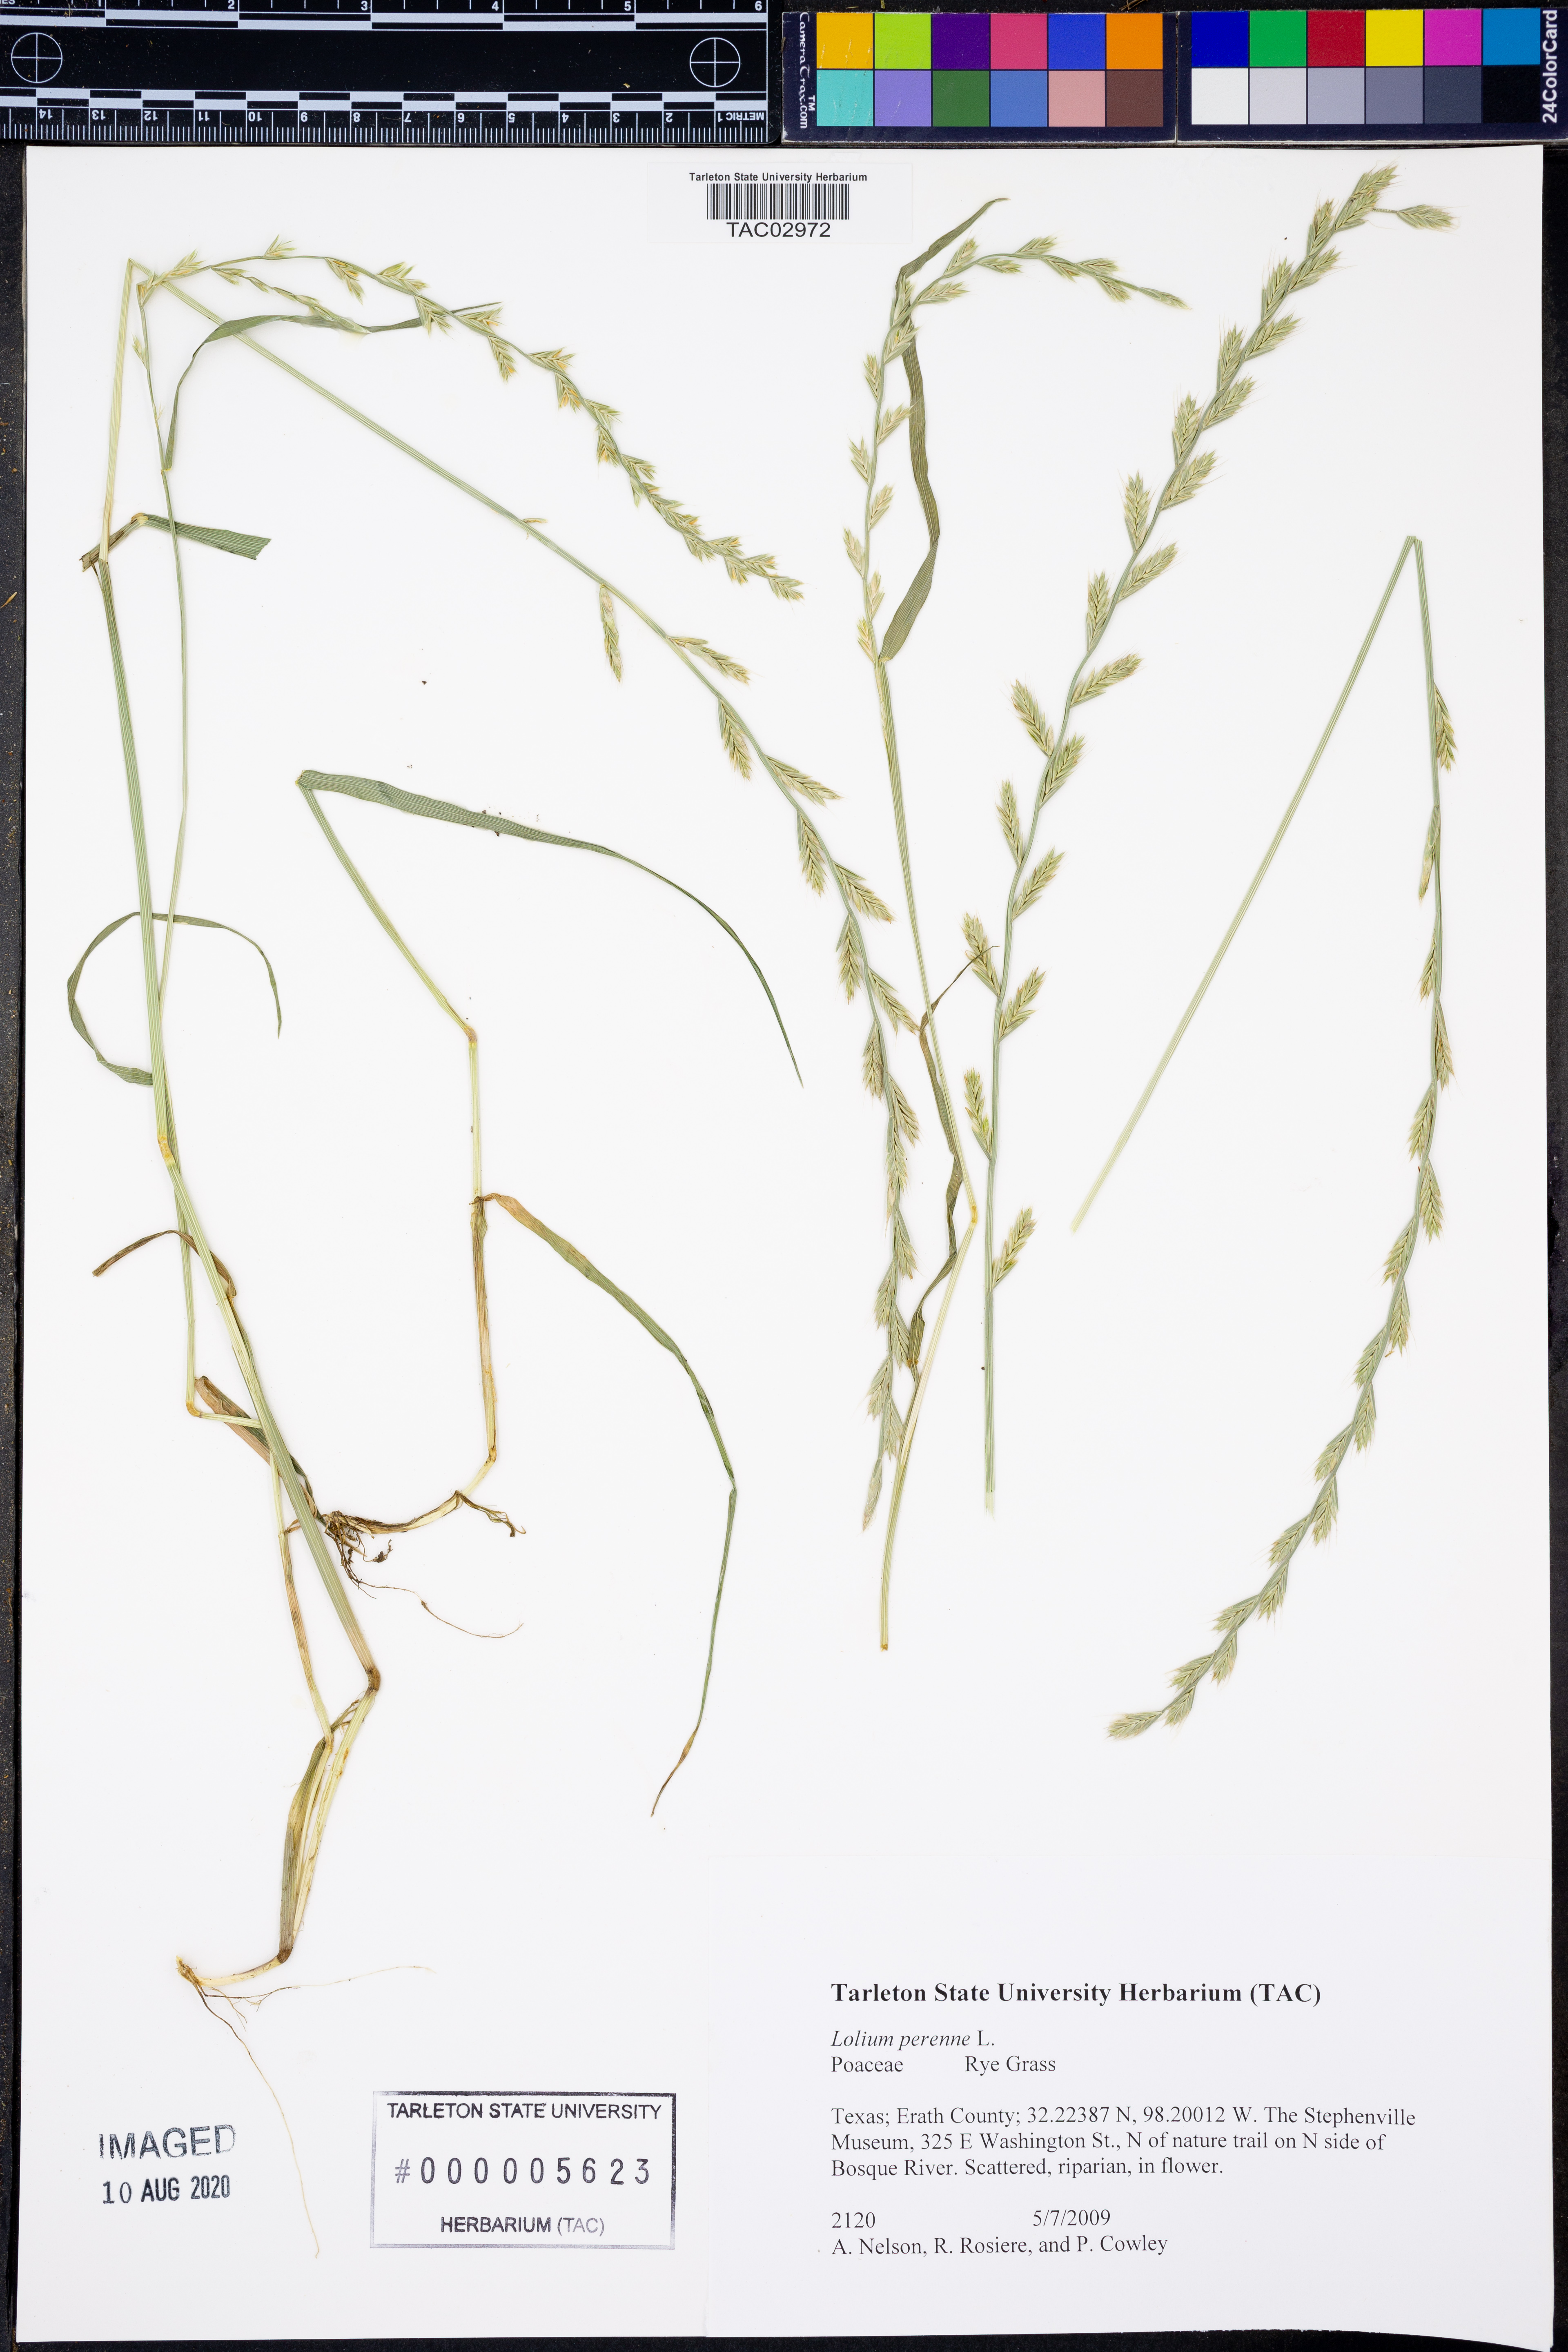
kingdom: Plantae
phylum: Tracheophyta
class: Liliopsida
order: Poales
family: Poaceae
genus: Lolium
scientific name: Lolium perenne
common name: Perennial ryegrass
